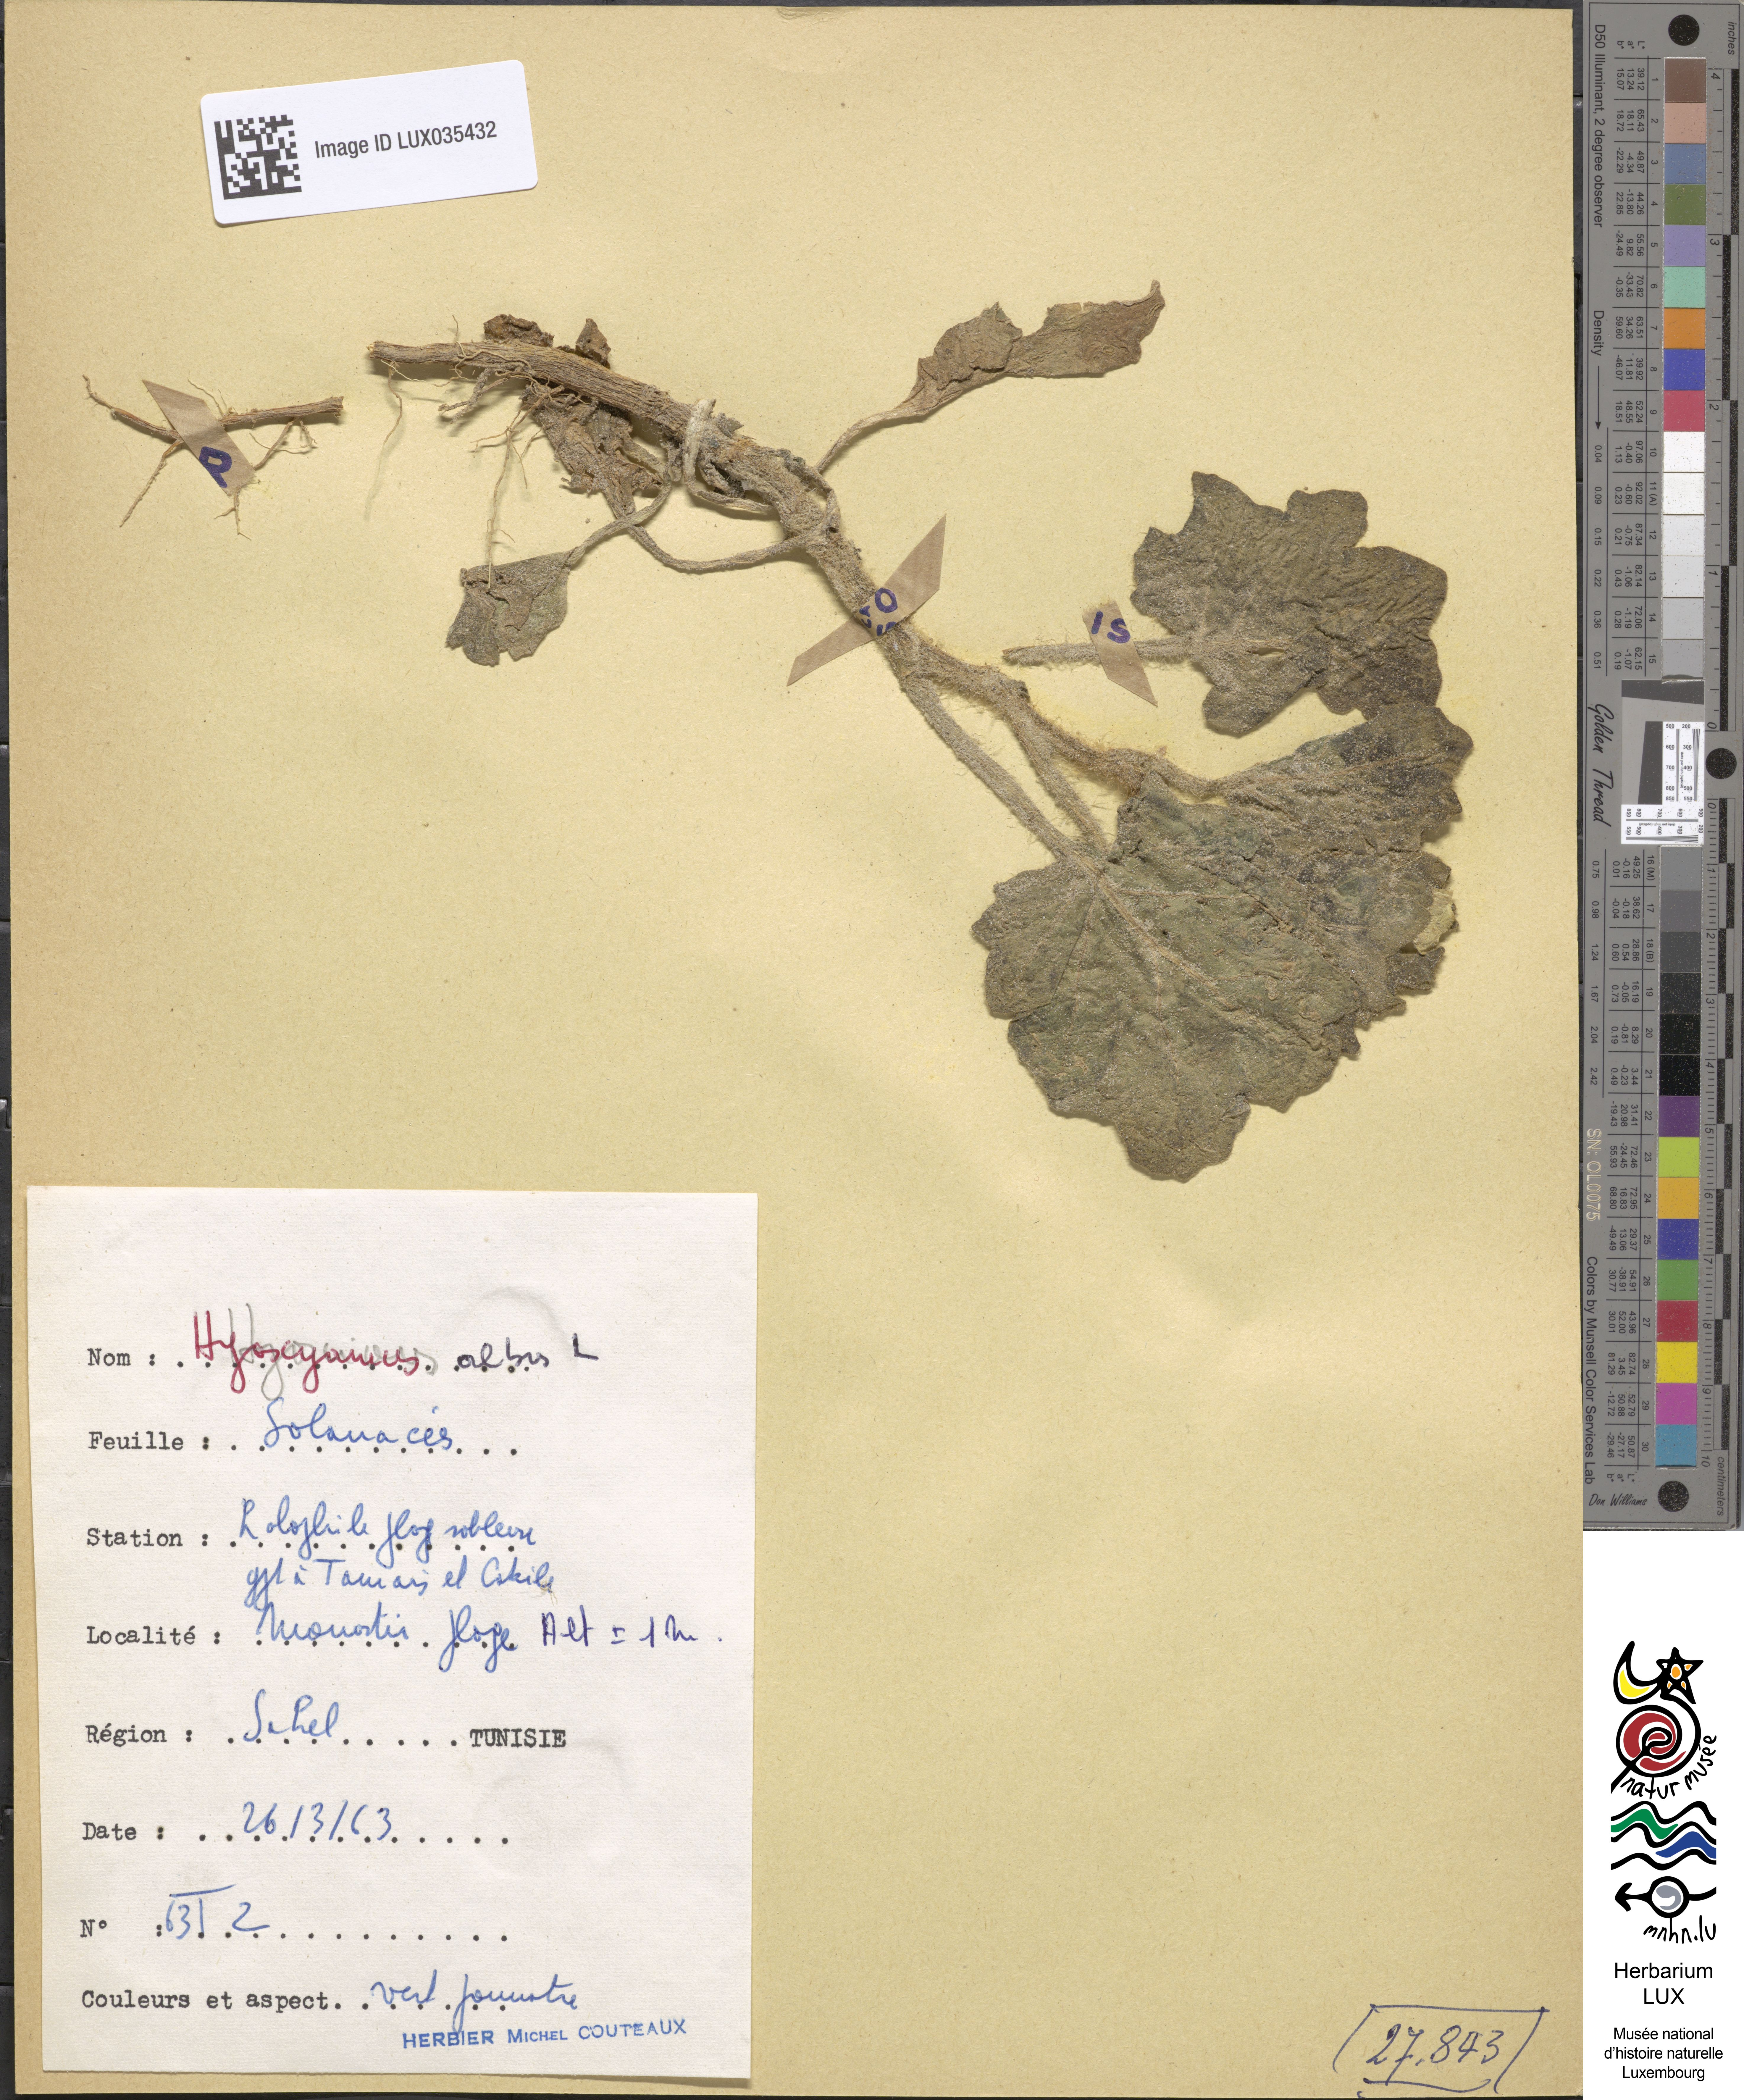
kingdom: Plantae
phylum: Tracheophyta
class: Magnoliopsida
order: Solanales
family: Solanaceae
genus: Hyoscyamus
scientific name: Hyoscyamus albus
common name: White henbane
